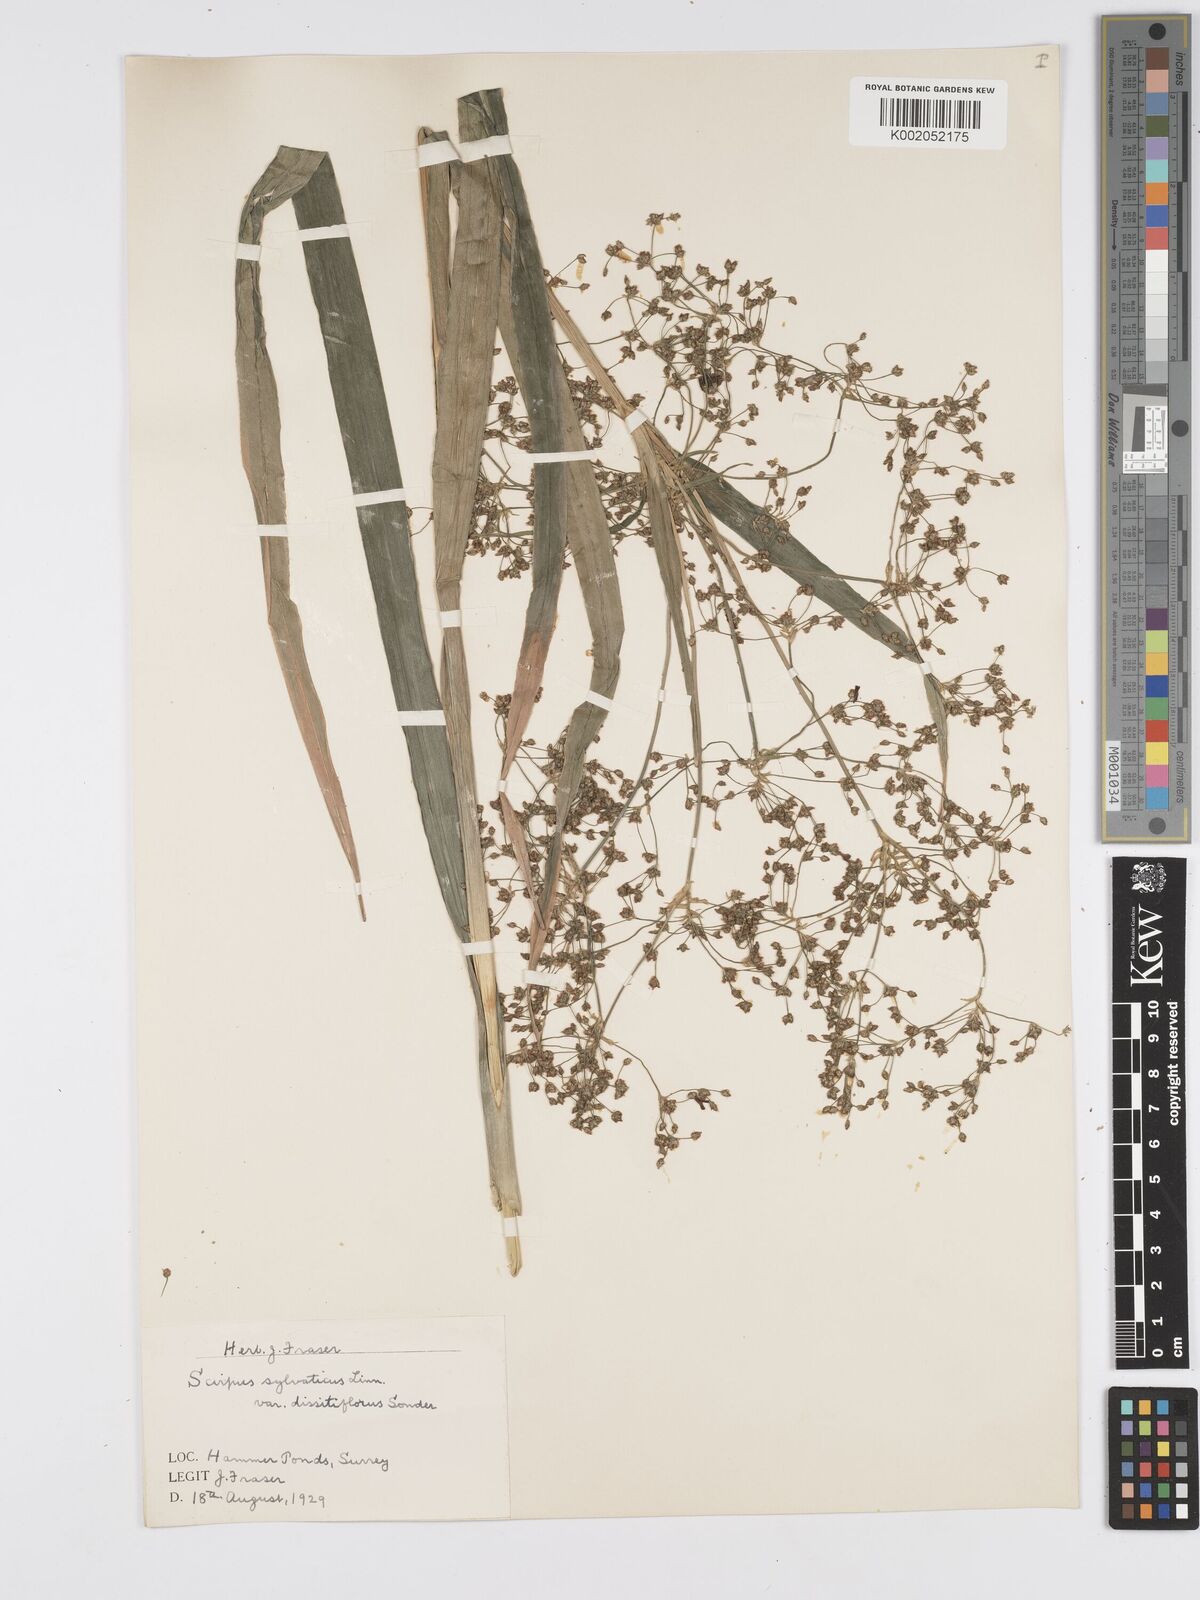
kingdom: Plantae
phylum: Tracheophyta
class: Liliopsida
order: Poales
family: Cyperaceae
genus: Scirpus
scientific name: Scirpus
